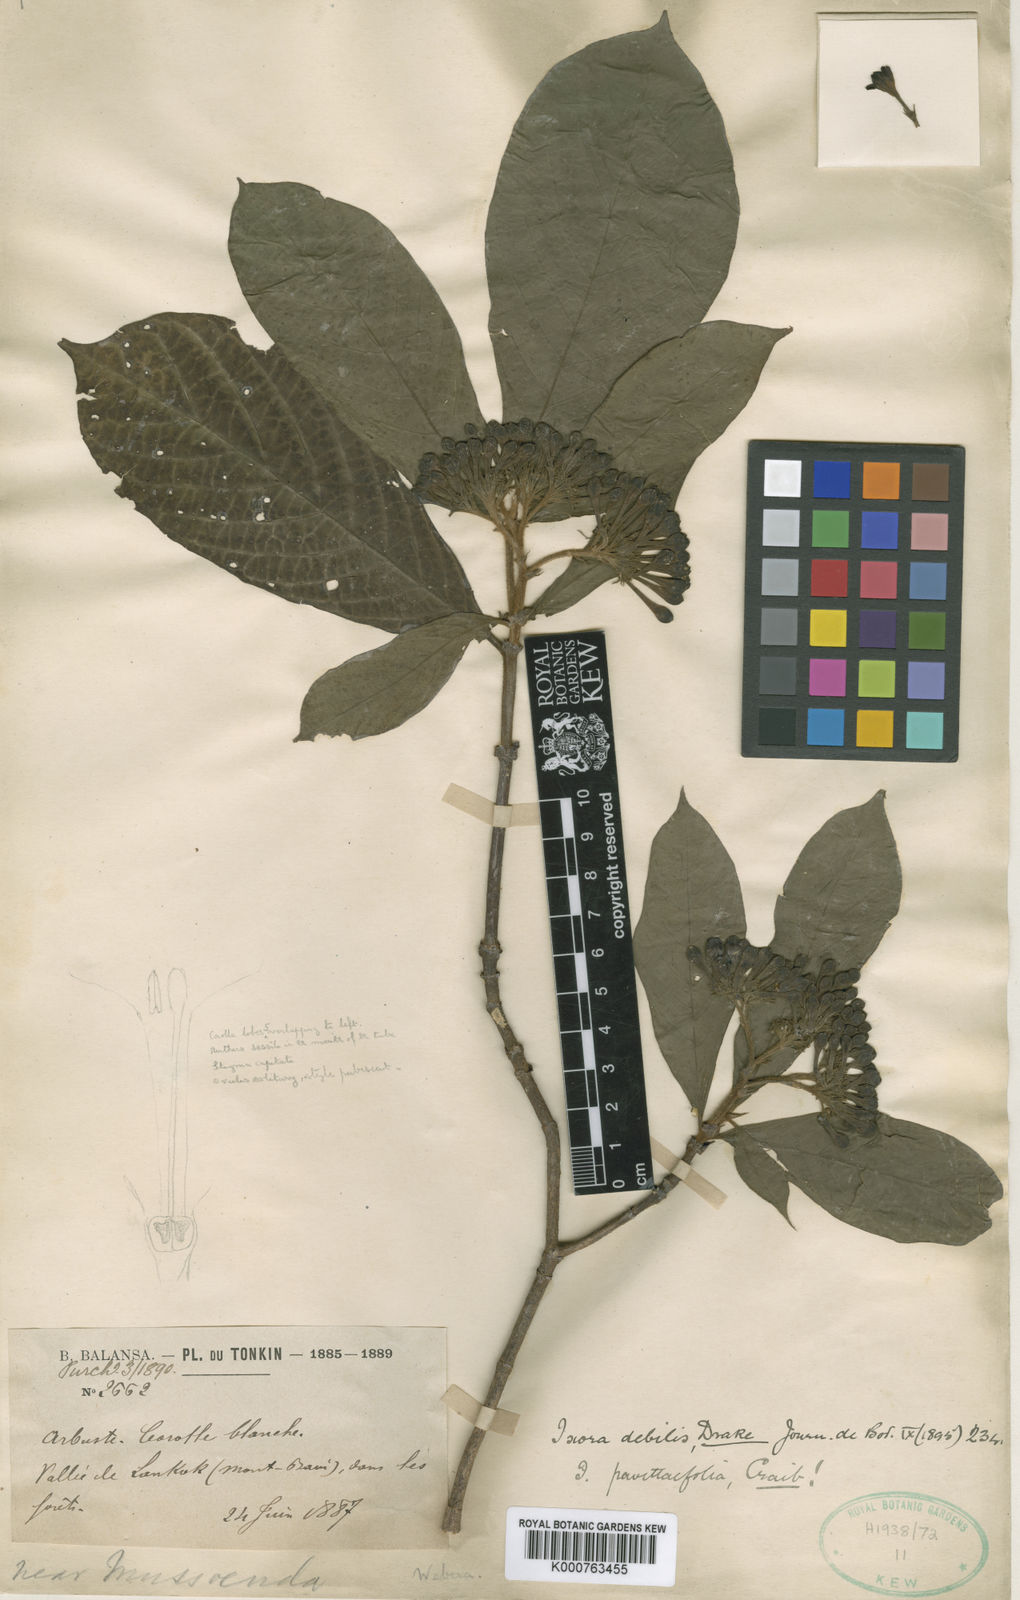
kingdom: Plantae
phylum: Tracheophyta
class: Magnoliopsida
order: Gentianales
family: Rubiaceae
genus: Duperrea
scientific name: Duperrea pavettifolia
